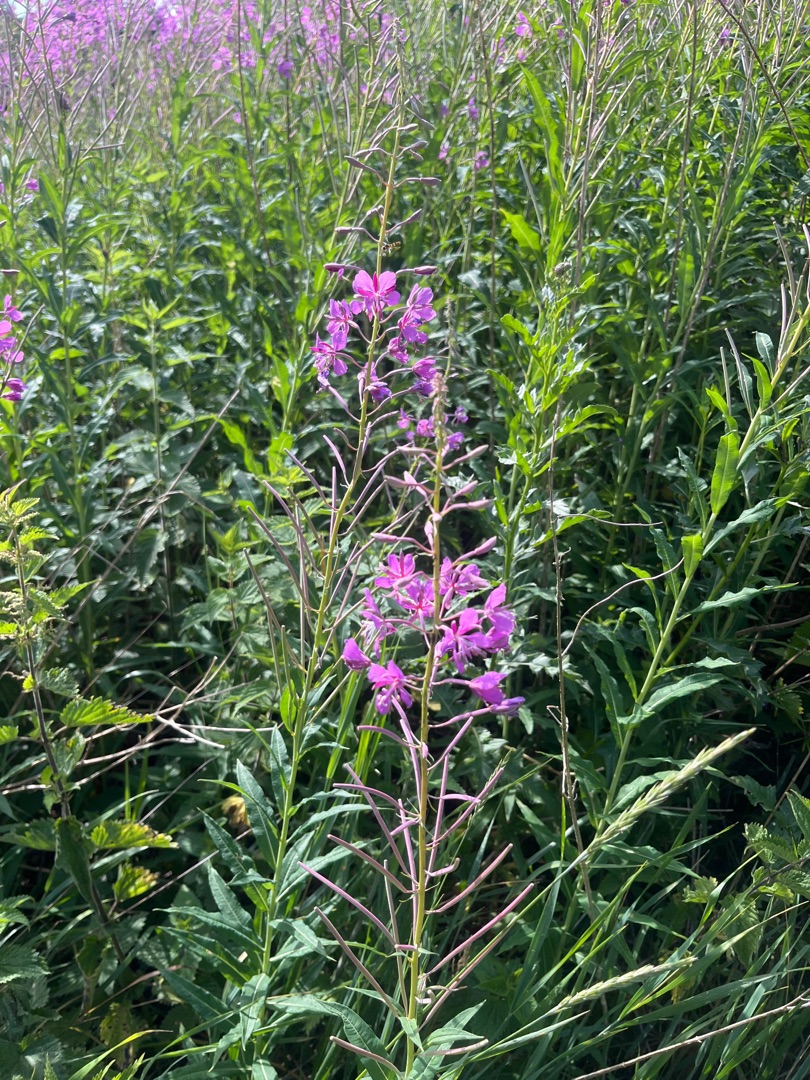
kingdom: Plantae
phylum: Tracheophyta
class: Magnoliopsida
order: Myrtales
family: Onagraceae
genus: Chamaenerion
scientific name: Chamaenerion angustifolium
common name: Gederams
